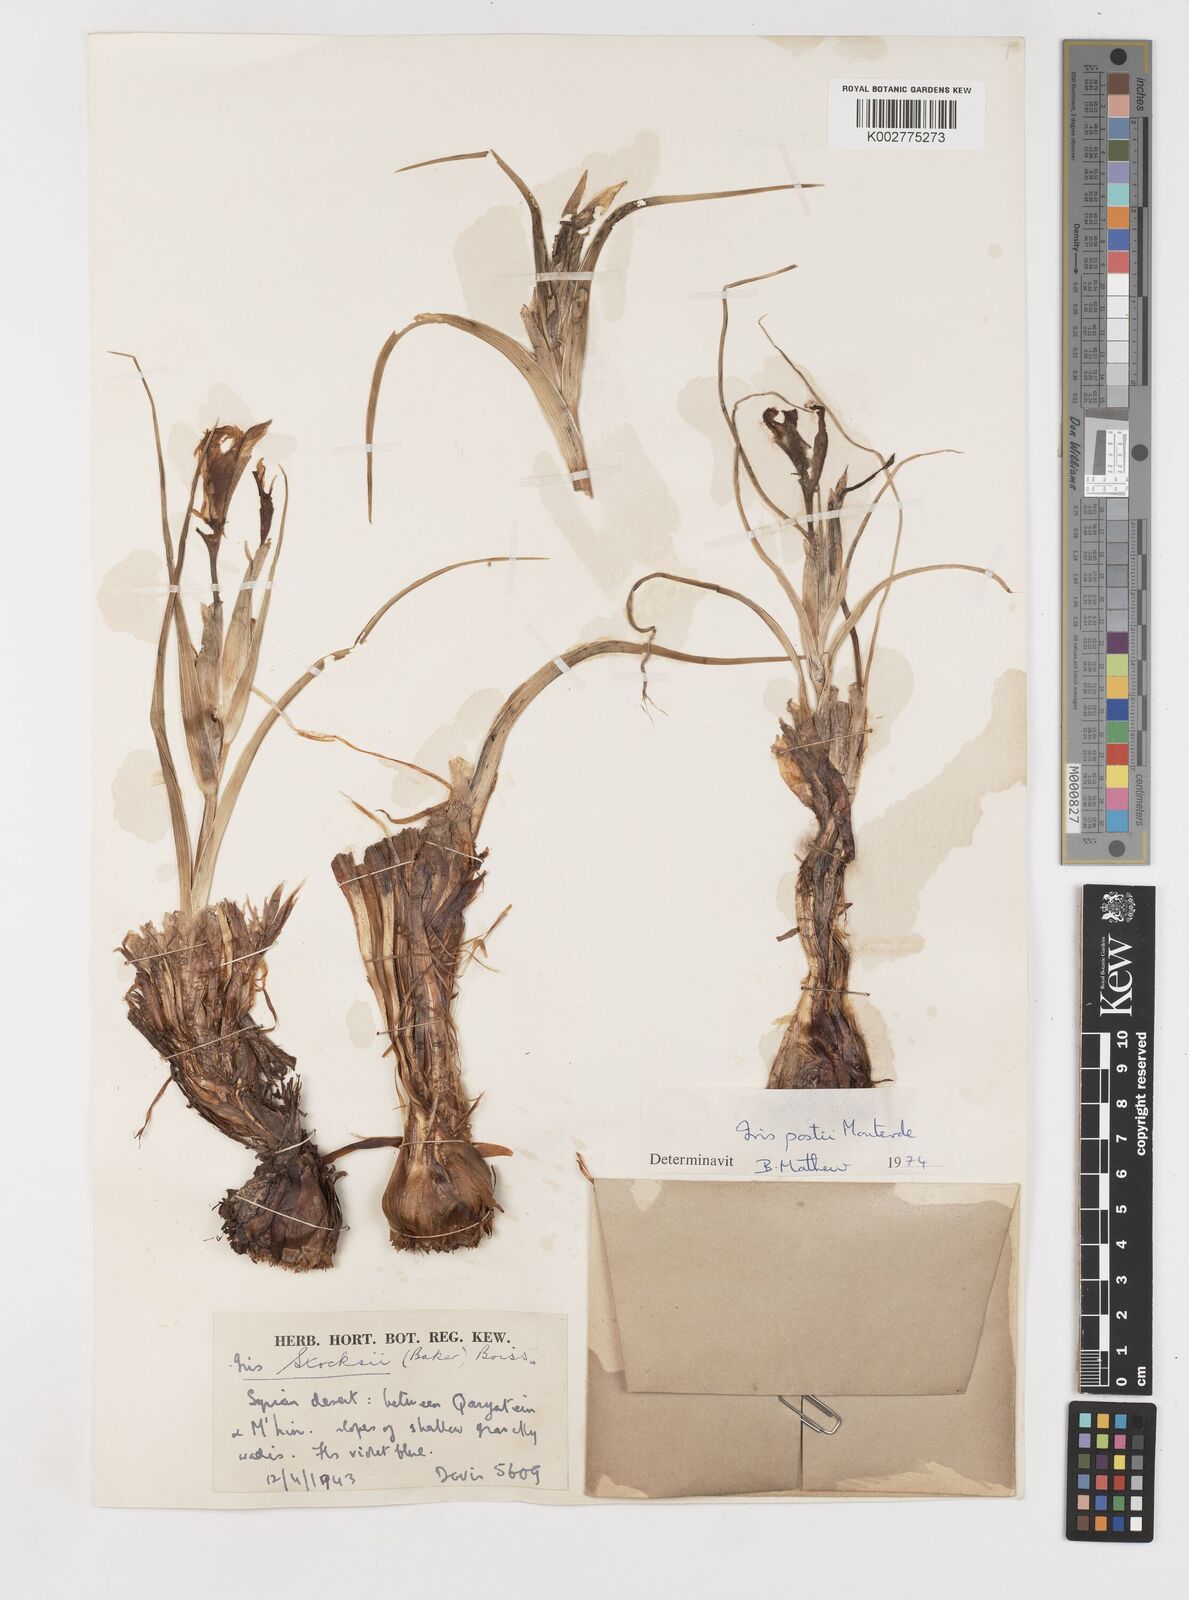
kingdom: Plantae
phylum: Tracheophyta
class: Liliopsida
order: Asparagales
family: Iridaceae
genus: Iris
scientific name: Iris postii
